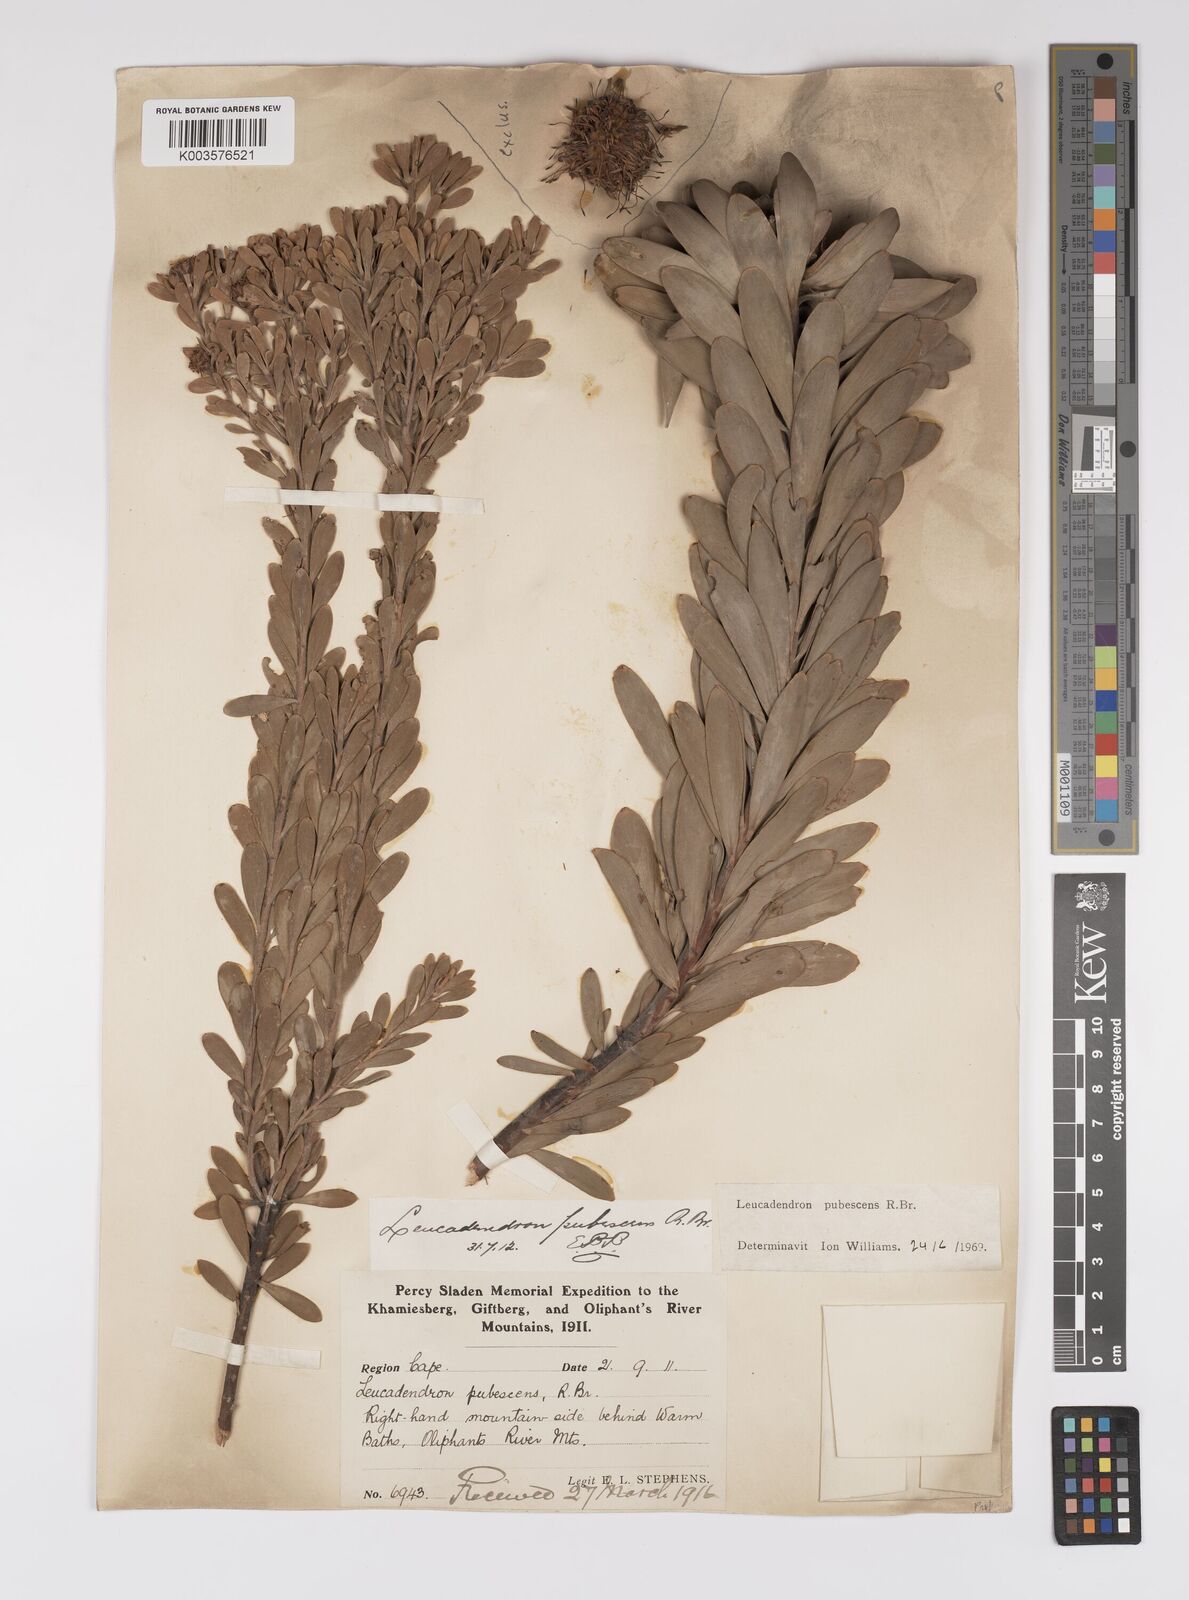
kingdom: Plantae
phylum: Tracheophyta
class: Magnoliopsida
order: Proteales
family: Proteaceae
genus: Leucadendron
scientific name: Leucadendron pubescens
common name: Grey conebush
